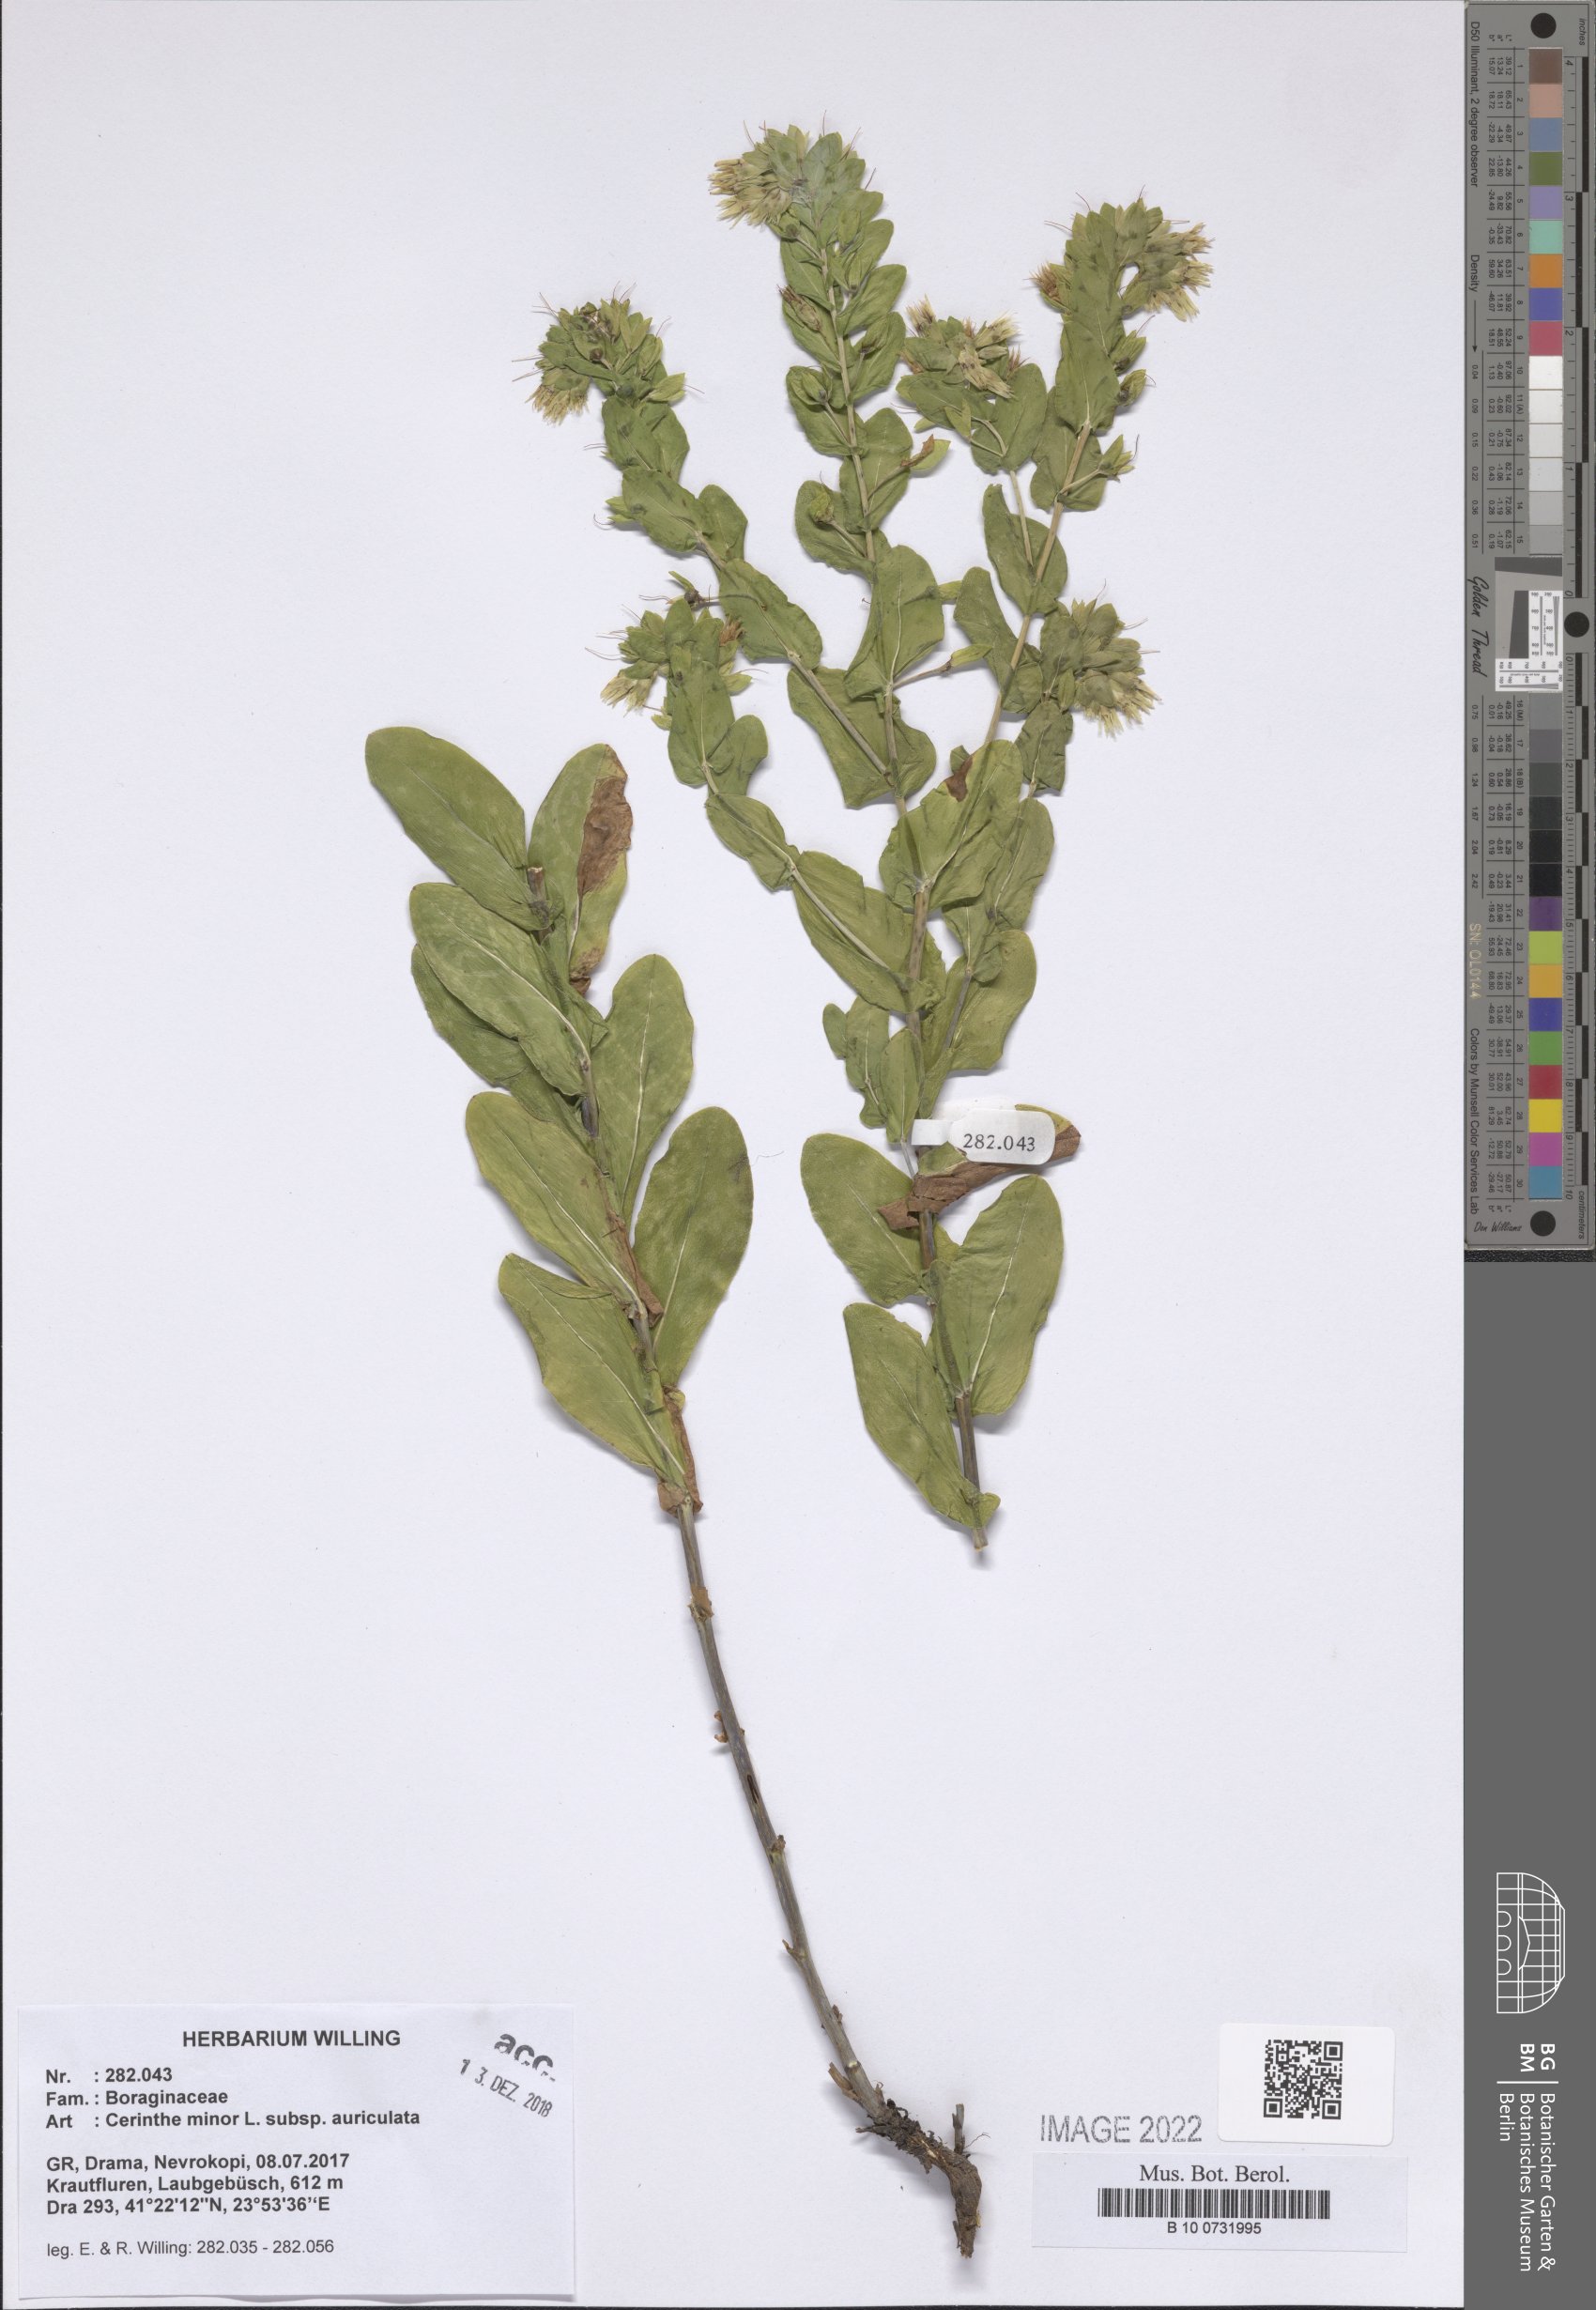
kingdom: Plantae
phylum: Tracheophyta
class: Magnoliopsida
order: Boraginales
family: Boraginaceae
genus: Cerinthe
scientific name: Cerinthe minor
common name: Lesser honeywort
